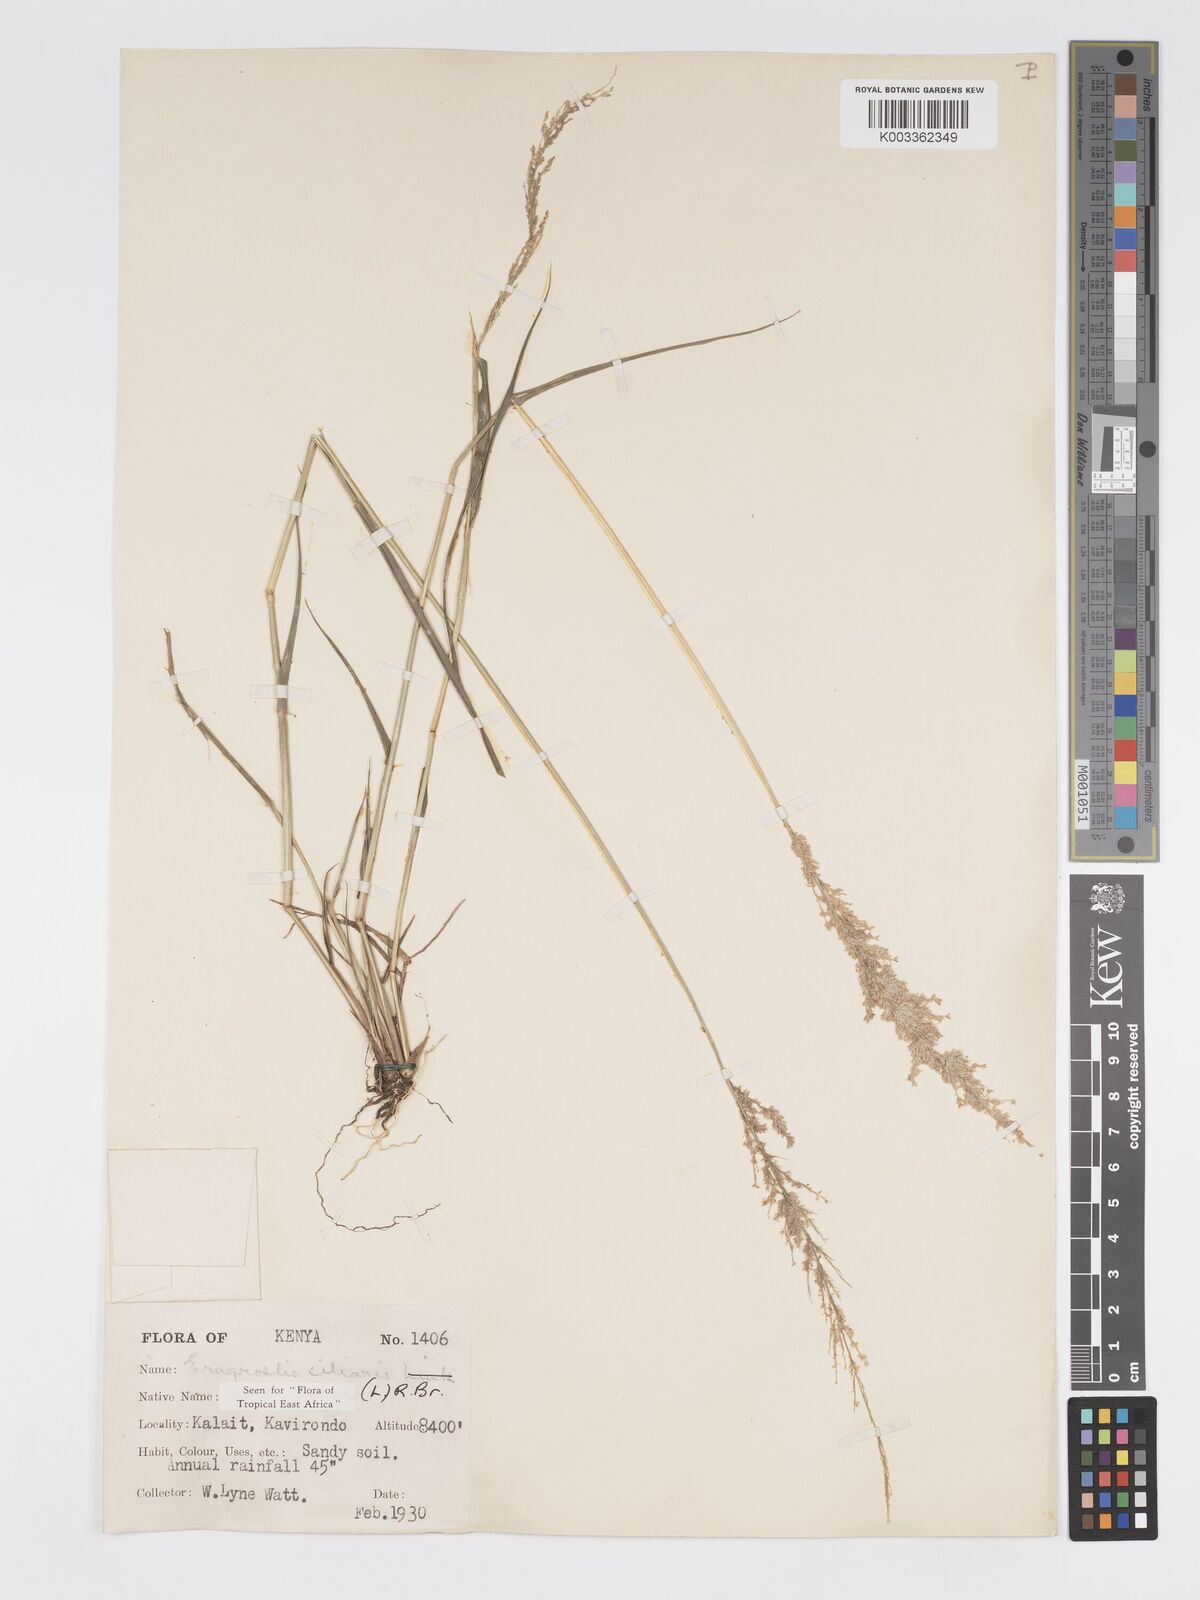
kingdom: Plantae
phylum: Tracheophyta
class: Liliopsida
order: Poales
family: Poaceae
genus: Eragrostis
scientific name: Eragrostis ciliaris
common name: Gophertail lovegrass
